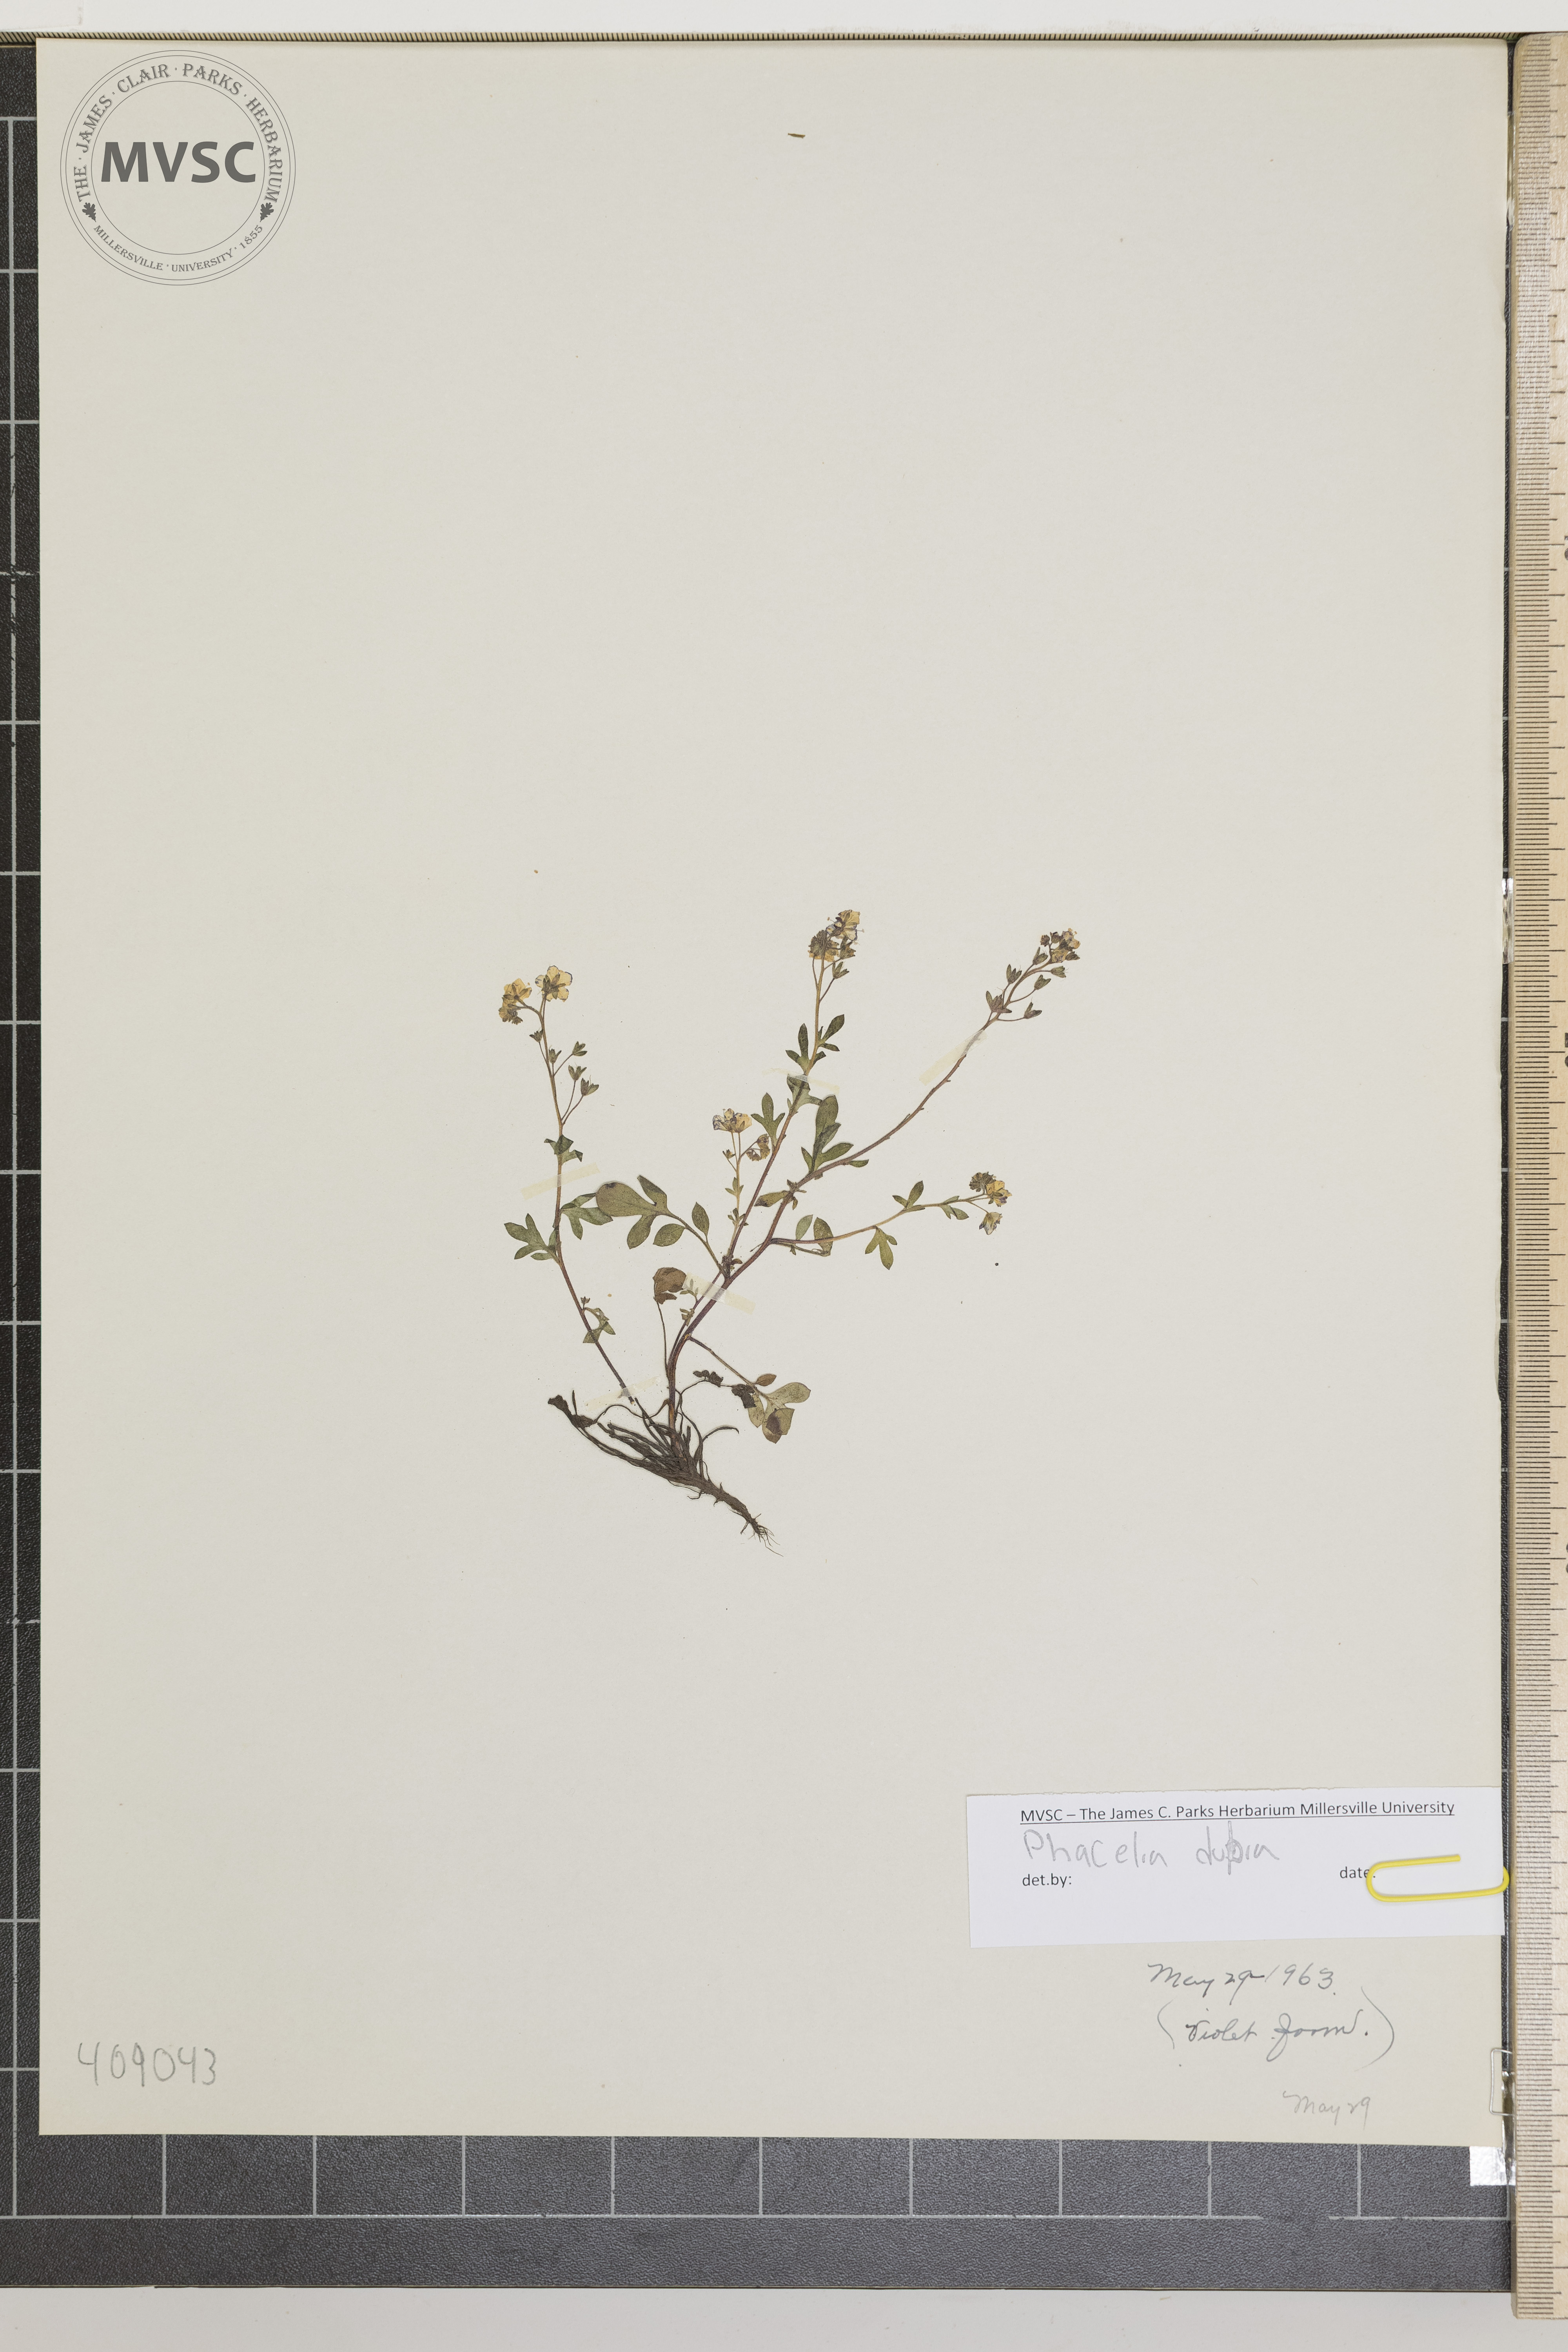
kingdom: Plantae
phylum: Tracheophyta
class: Magnoliopsida
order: Boraginales
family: Hydrophyllaceae
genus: Phacelia
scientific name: Phacelia dubia
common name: Appalachian phacelia
